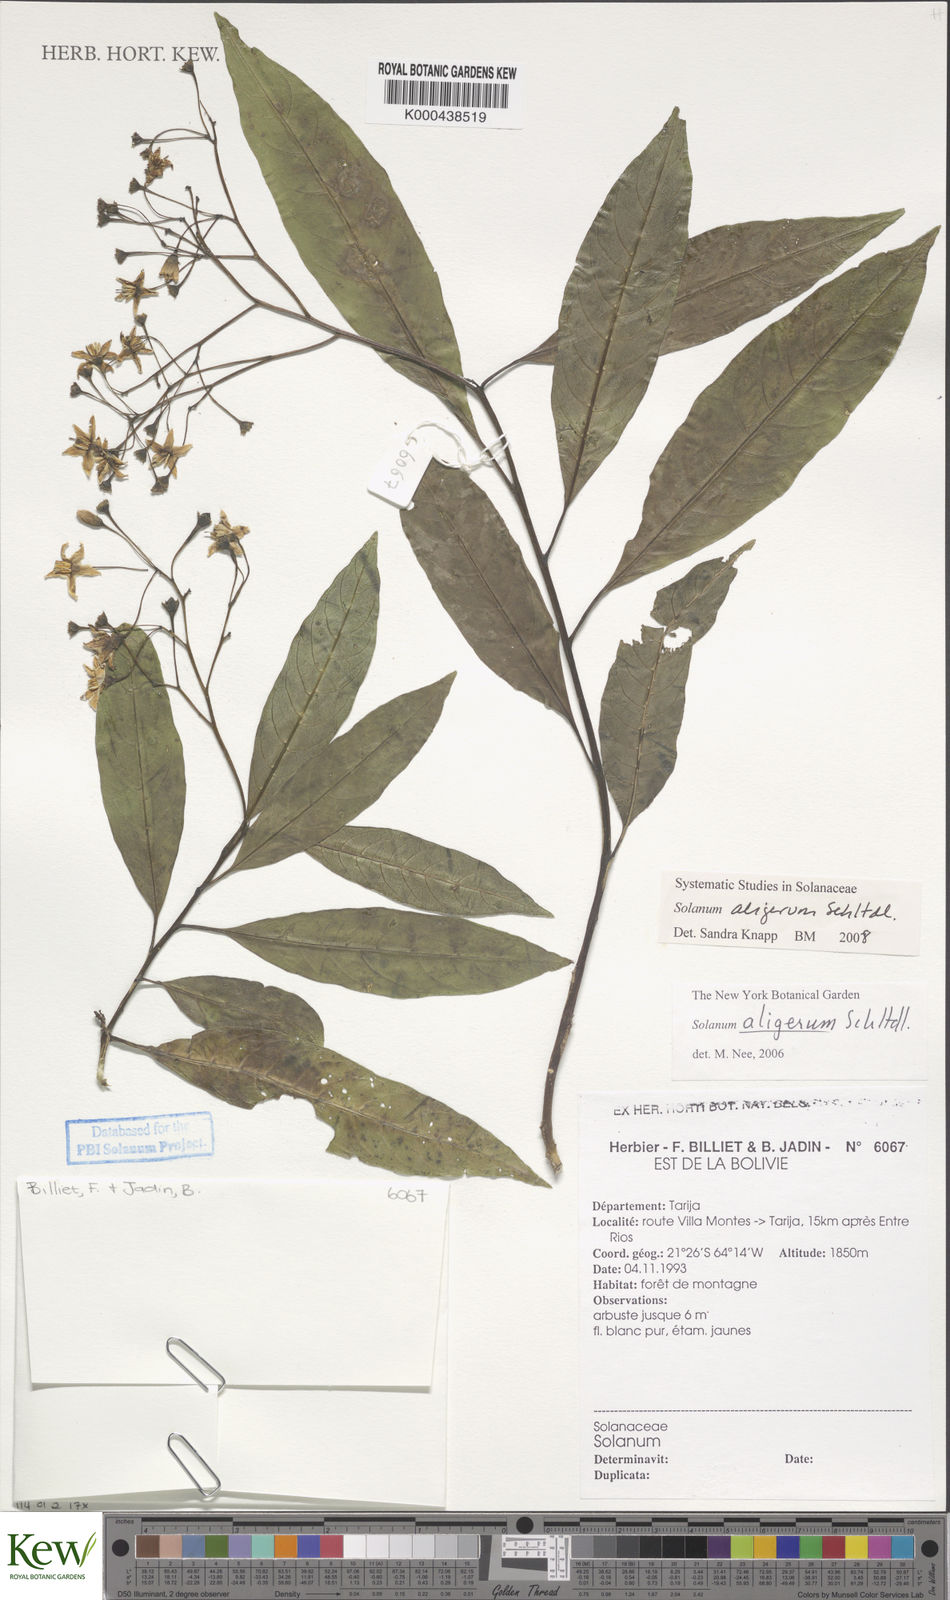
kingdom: Plantae
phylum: Tracheophyta
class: Magnoliopsida
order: Solanales
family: Solanaceae
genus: Solanum
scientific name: Solanum aligerum
